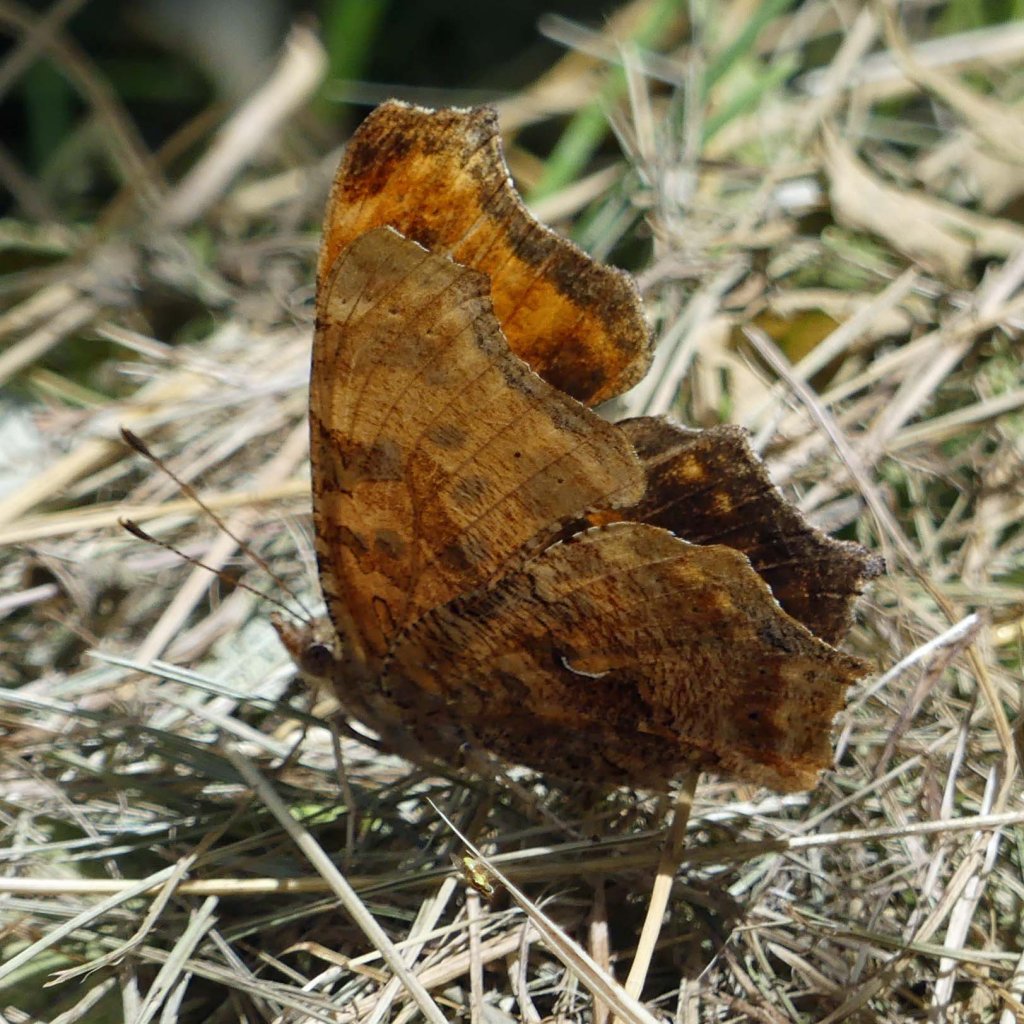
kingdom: Animalia
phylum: Arthropoda
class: Insecta
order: Lepidoptera
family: Nymphalidae
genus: Polygonia
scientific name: Polygonia comma
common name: Eastern Comma
